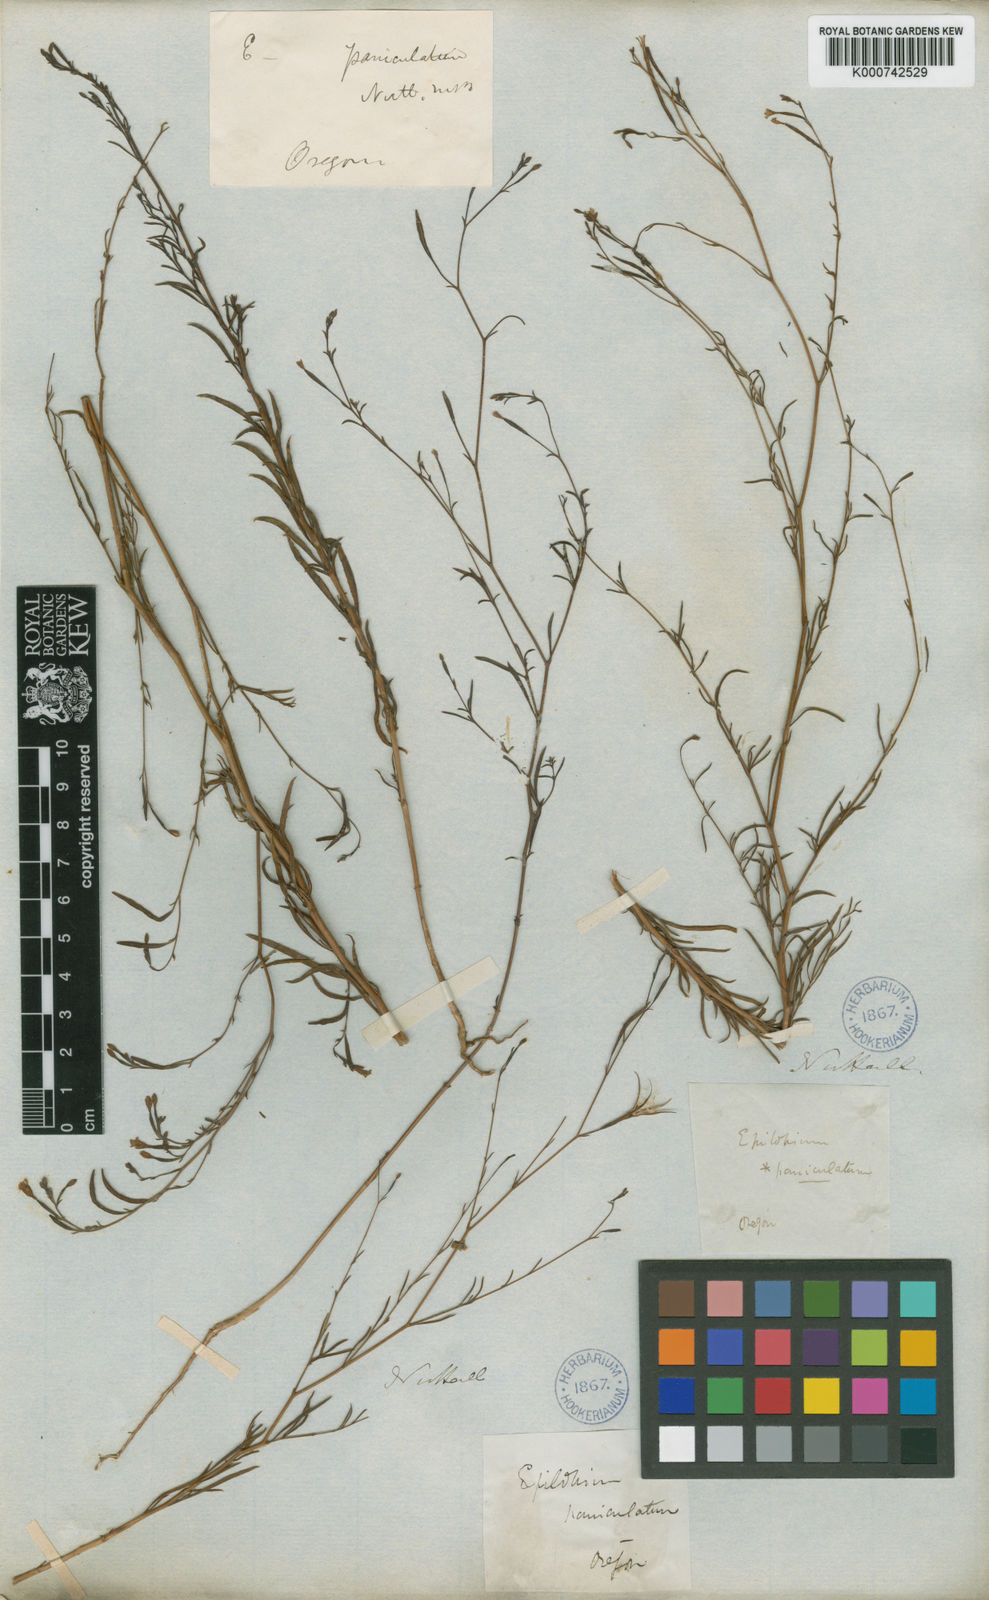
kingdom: Plantae
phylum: Tracheophyta
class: Magnoliopsida
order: Myrtales
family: Onagraceae
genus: Epilobium
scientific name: Epilobium
